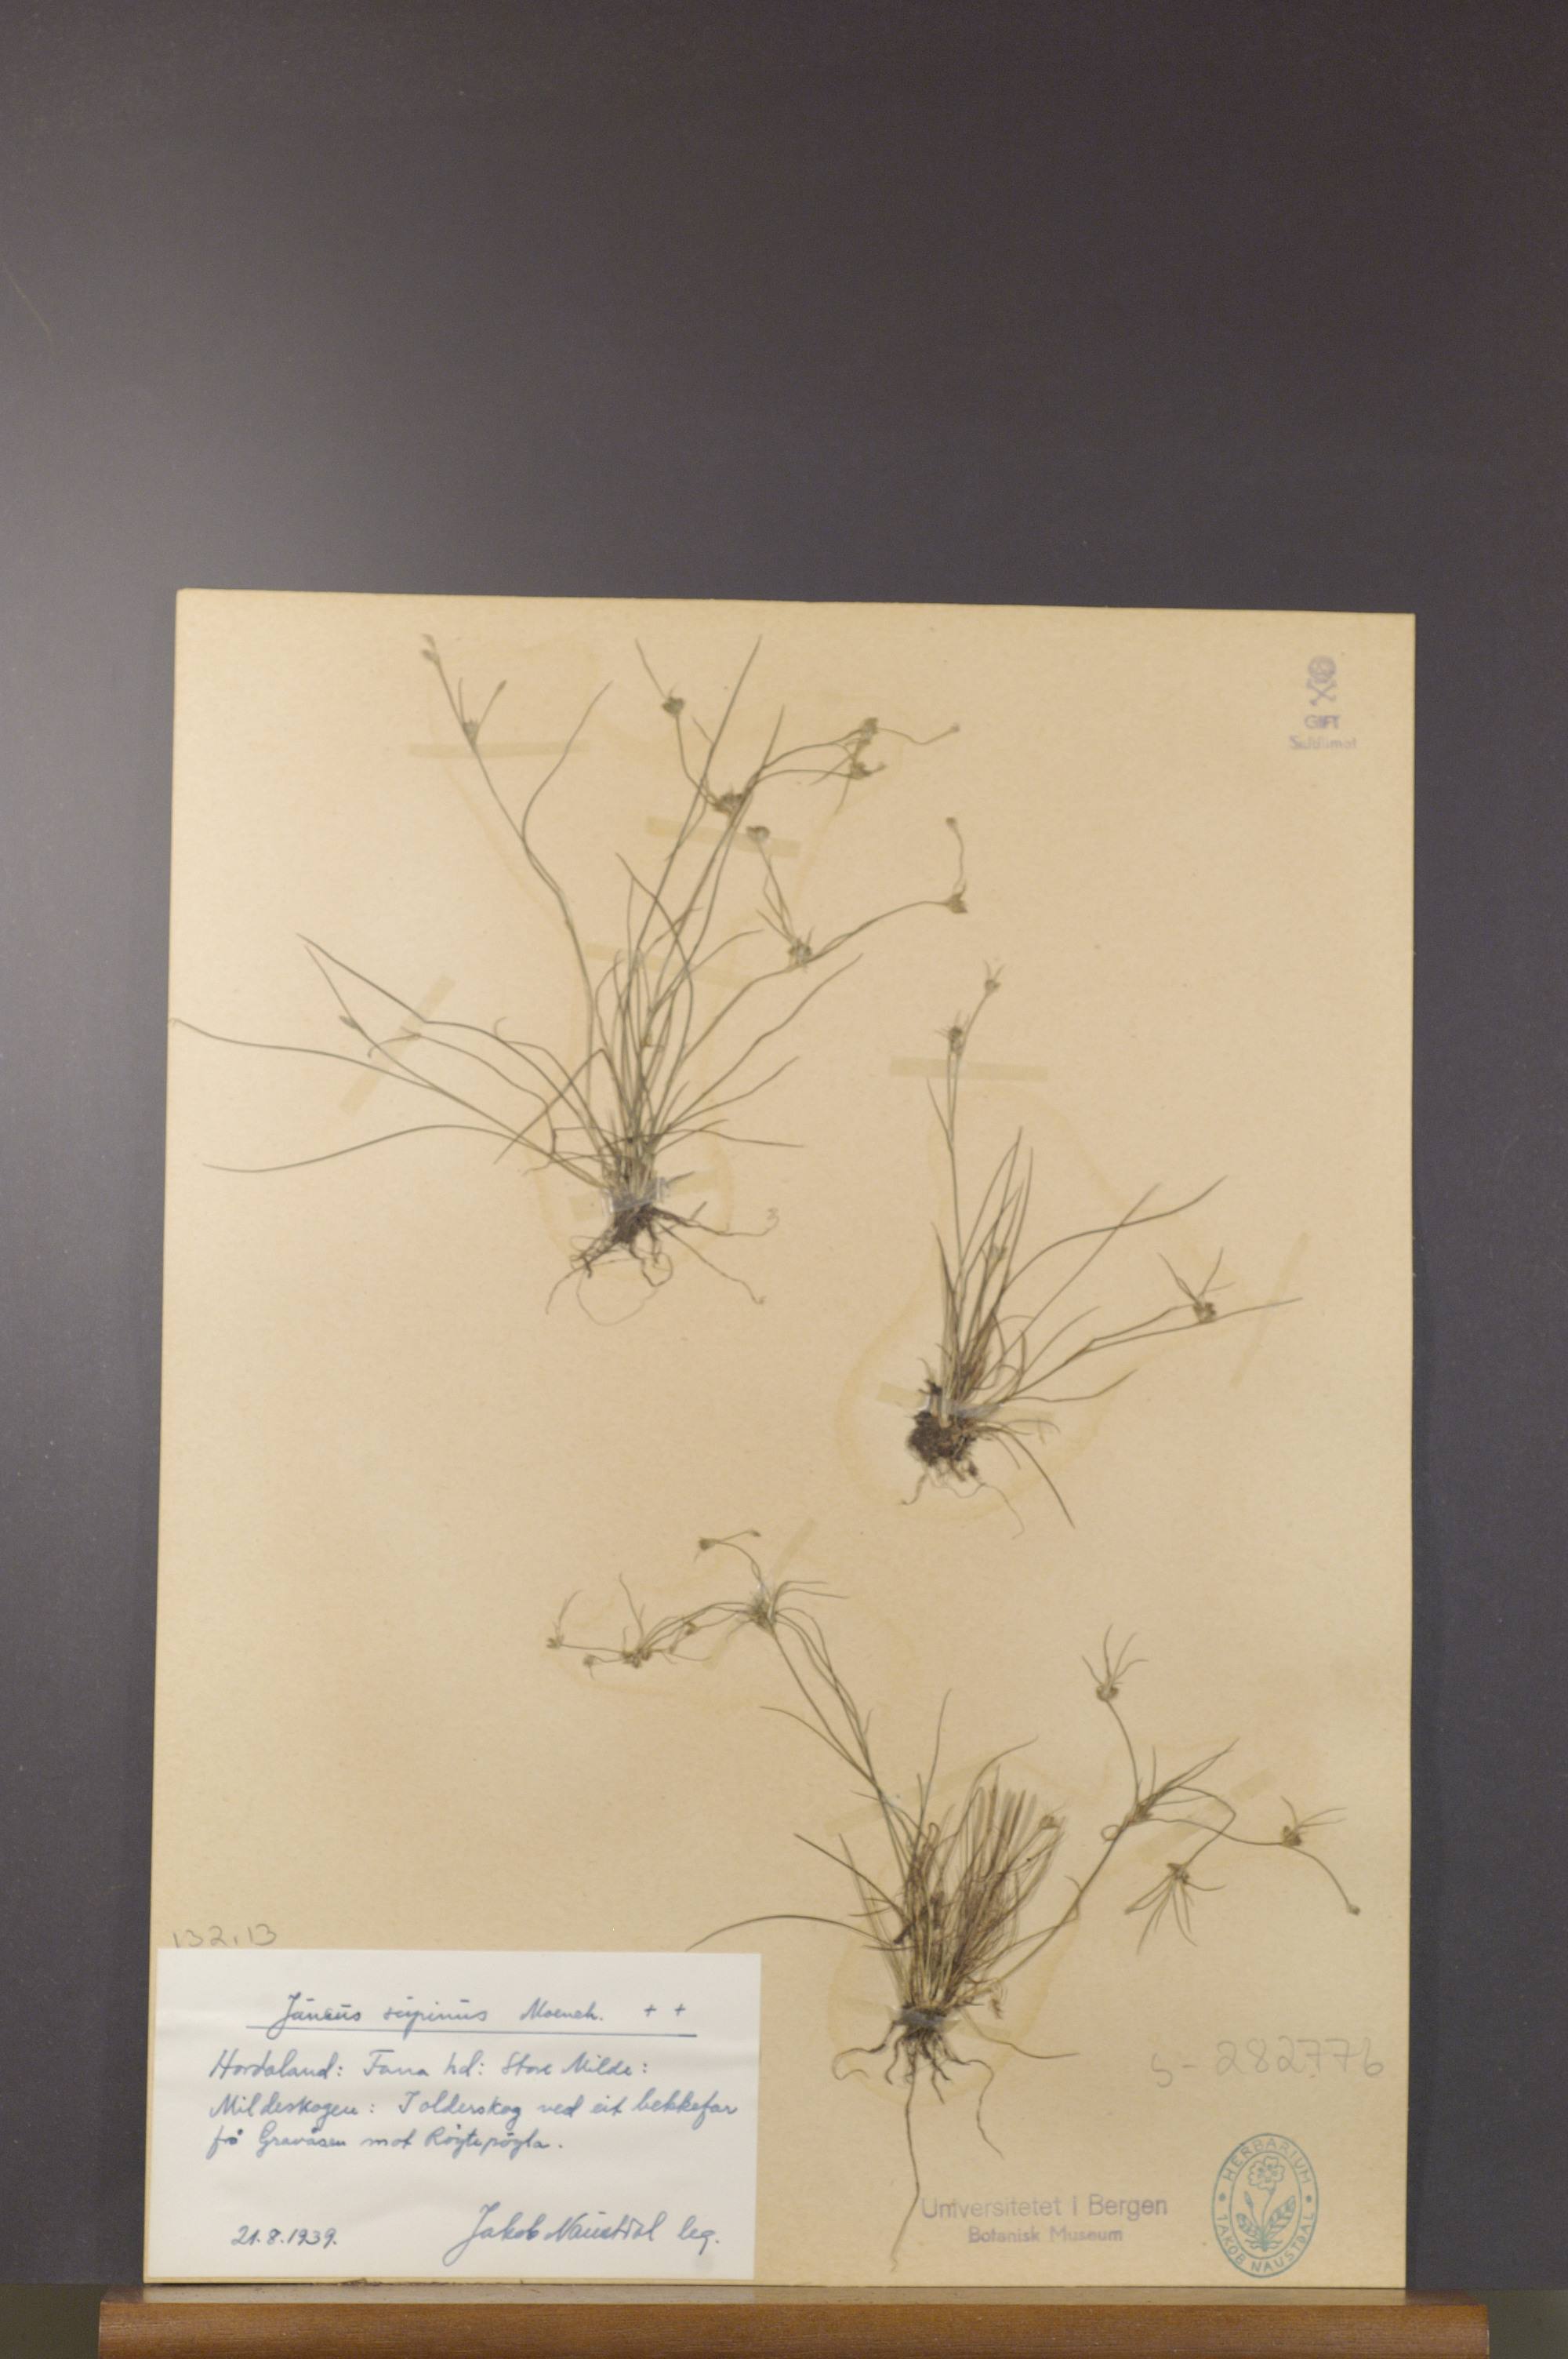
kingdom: Plantae
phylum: Tracheophyta
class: Liliopsida
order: Poales
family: Juncaceae
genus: Juncus
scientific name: Juncus bulbosus
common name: Bulbous rush
